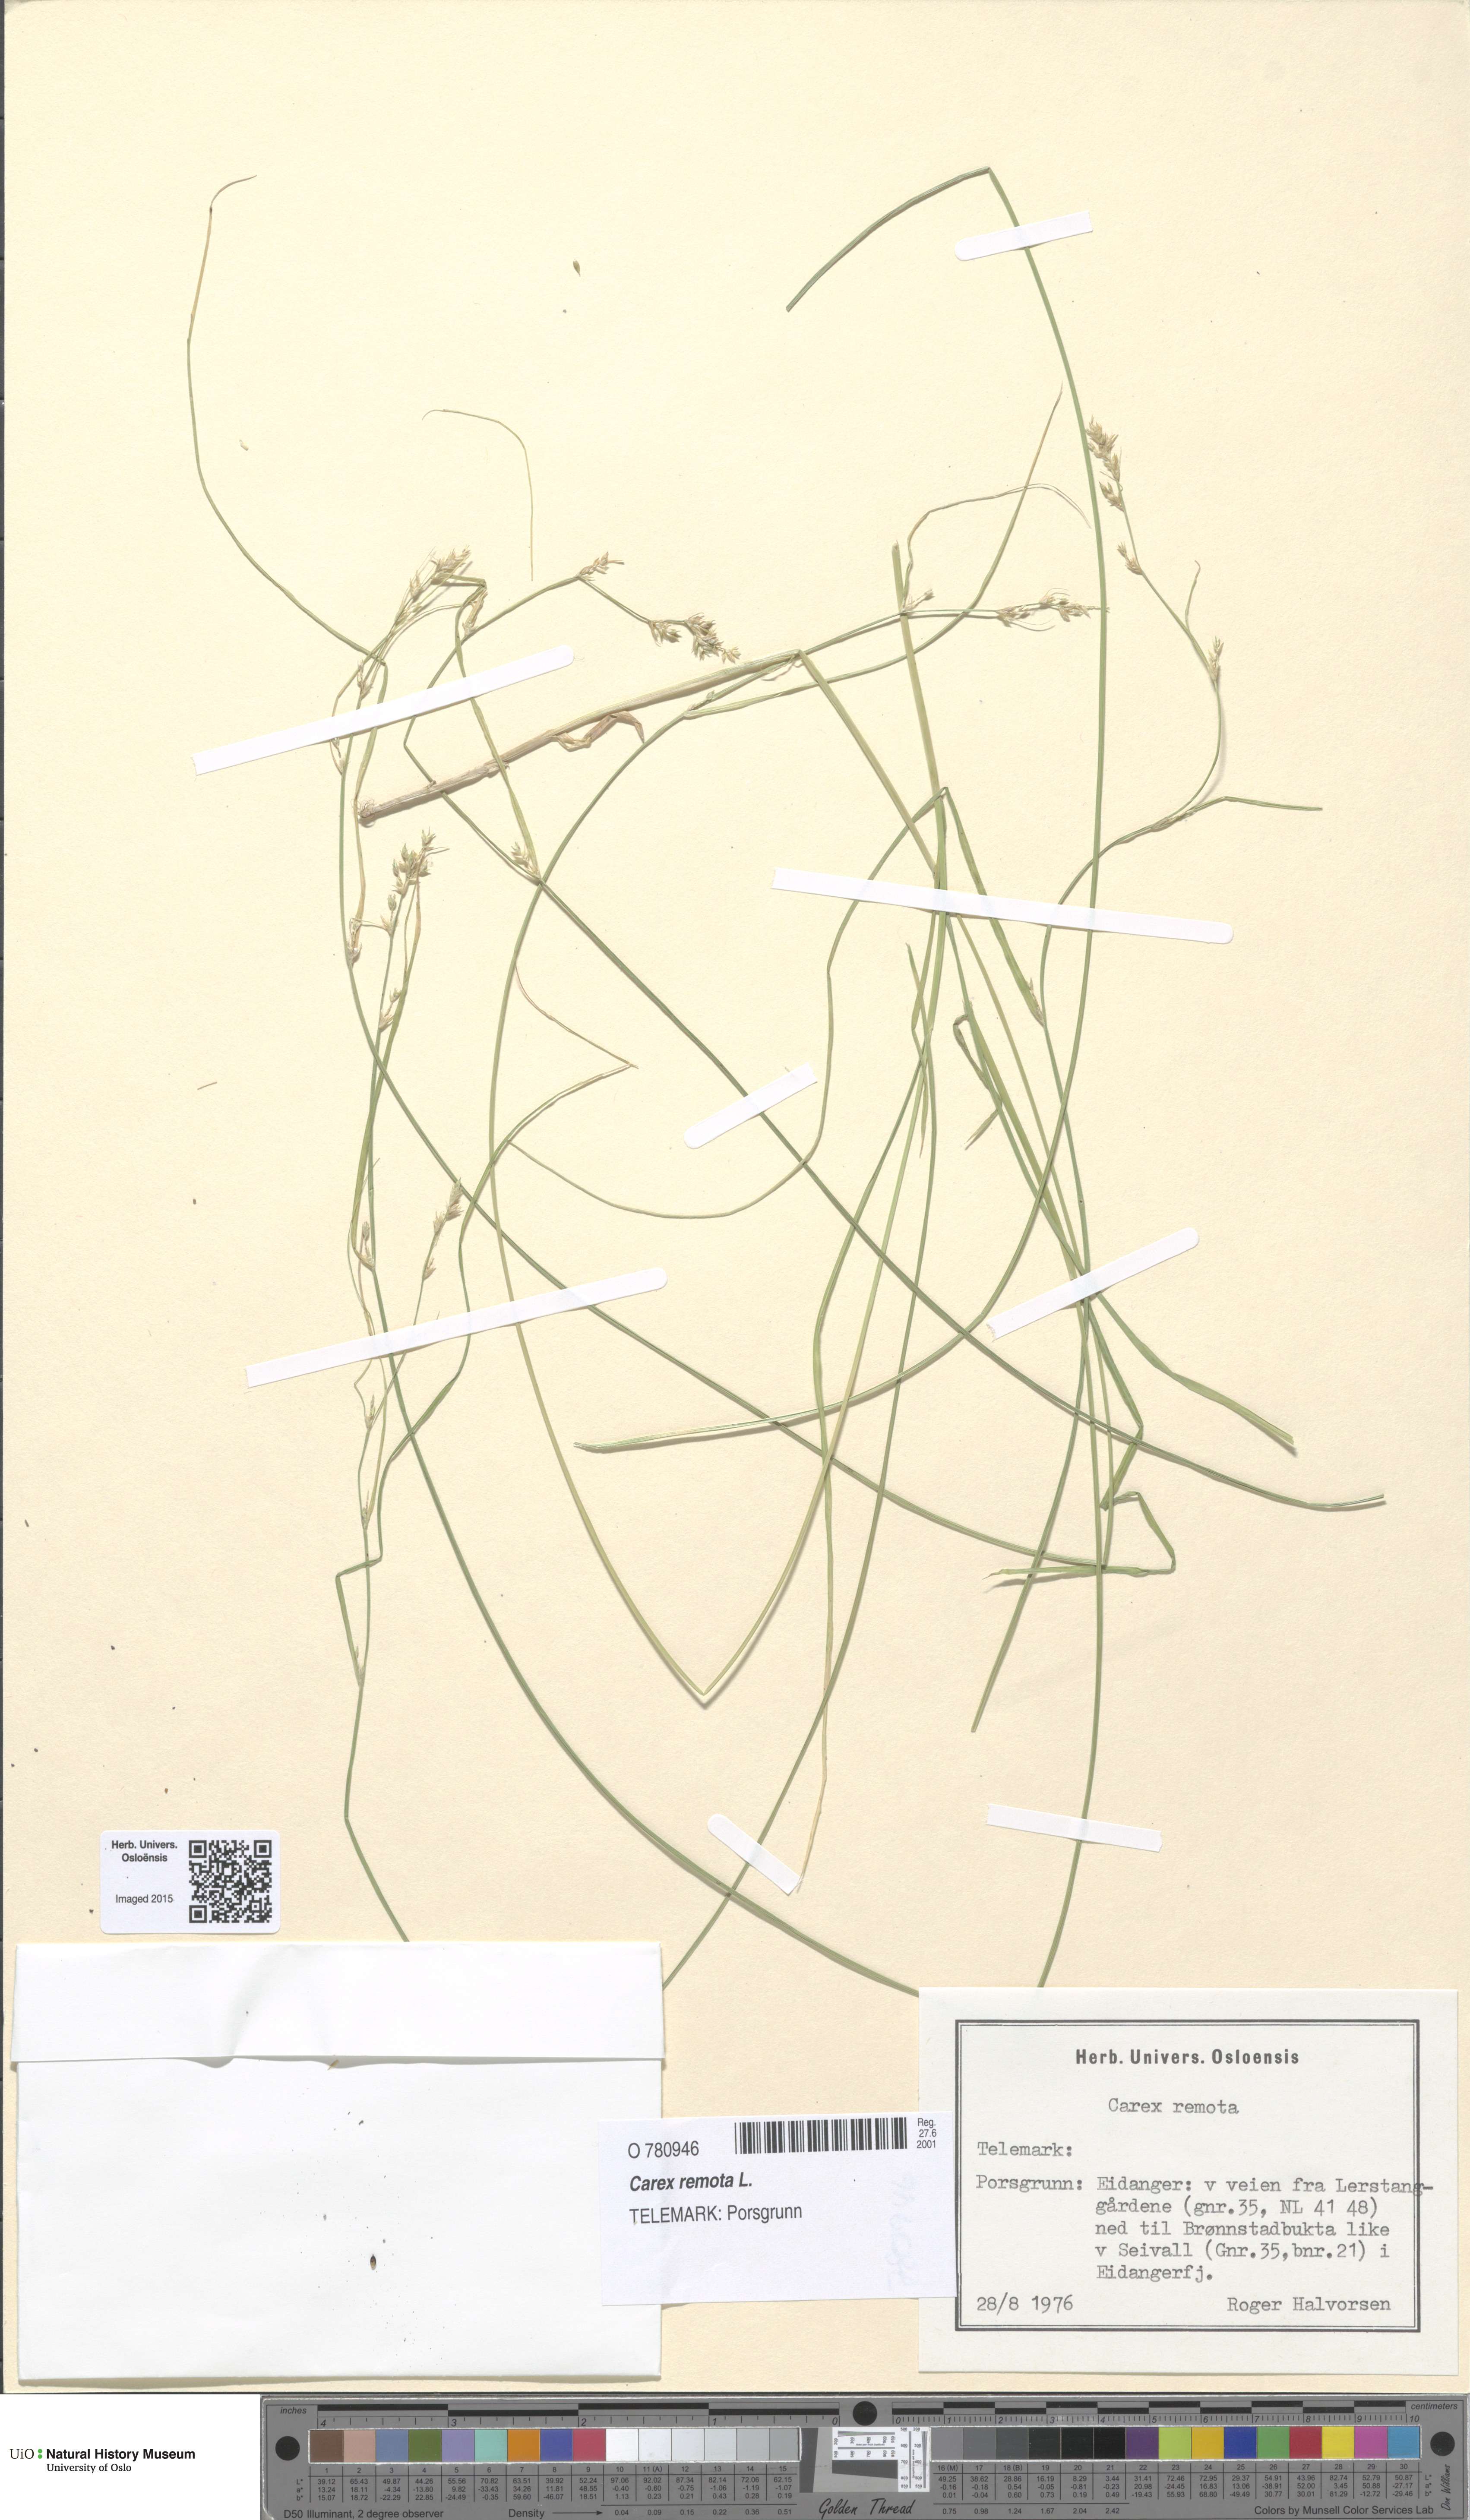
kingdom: Plantae
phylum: Tracheophyta
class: Liliopsida
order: Poales
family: Cyperaceae
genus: Carex
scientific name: Carex remota
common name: Remote sedge
